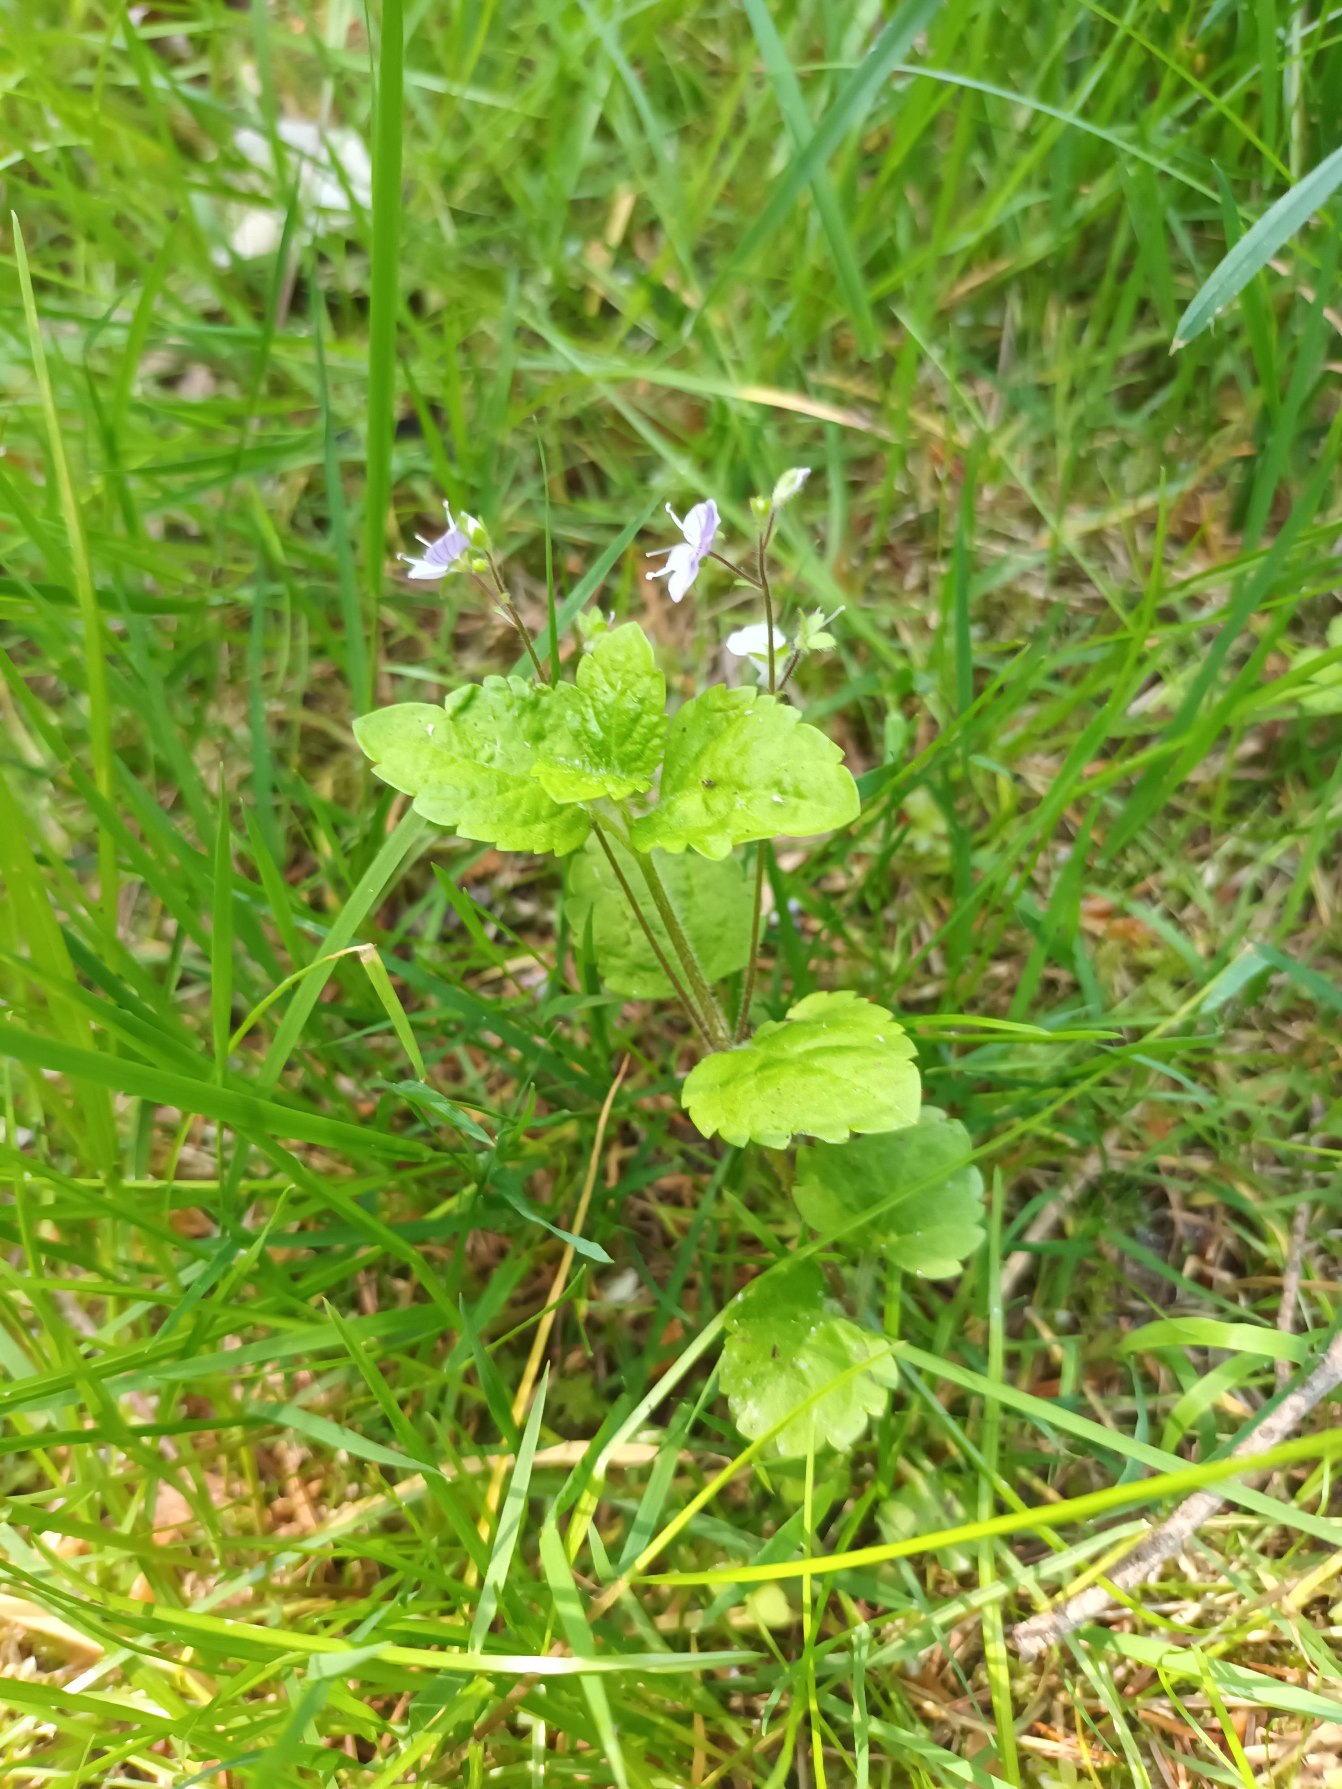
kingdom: Plantae
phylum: Tracheophyta
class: Magnoliopsida
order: Lamiales
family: Plantaginaceae
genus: Veronica
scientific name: Veronica montana
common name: Bjerg-ærenpris
